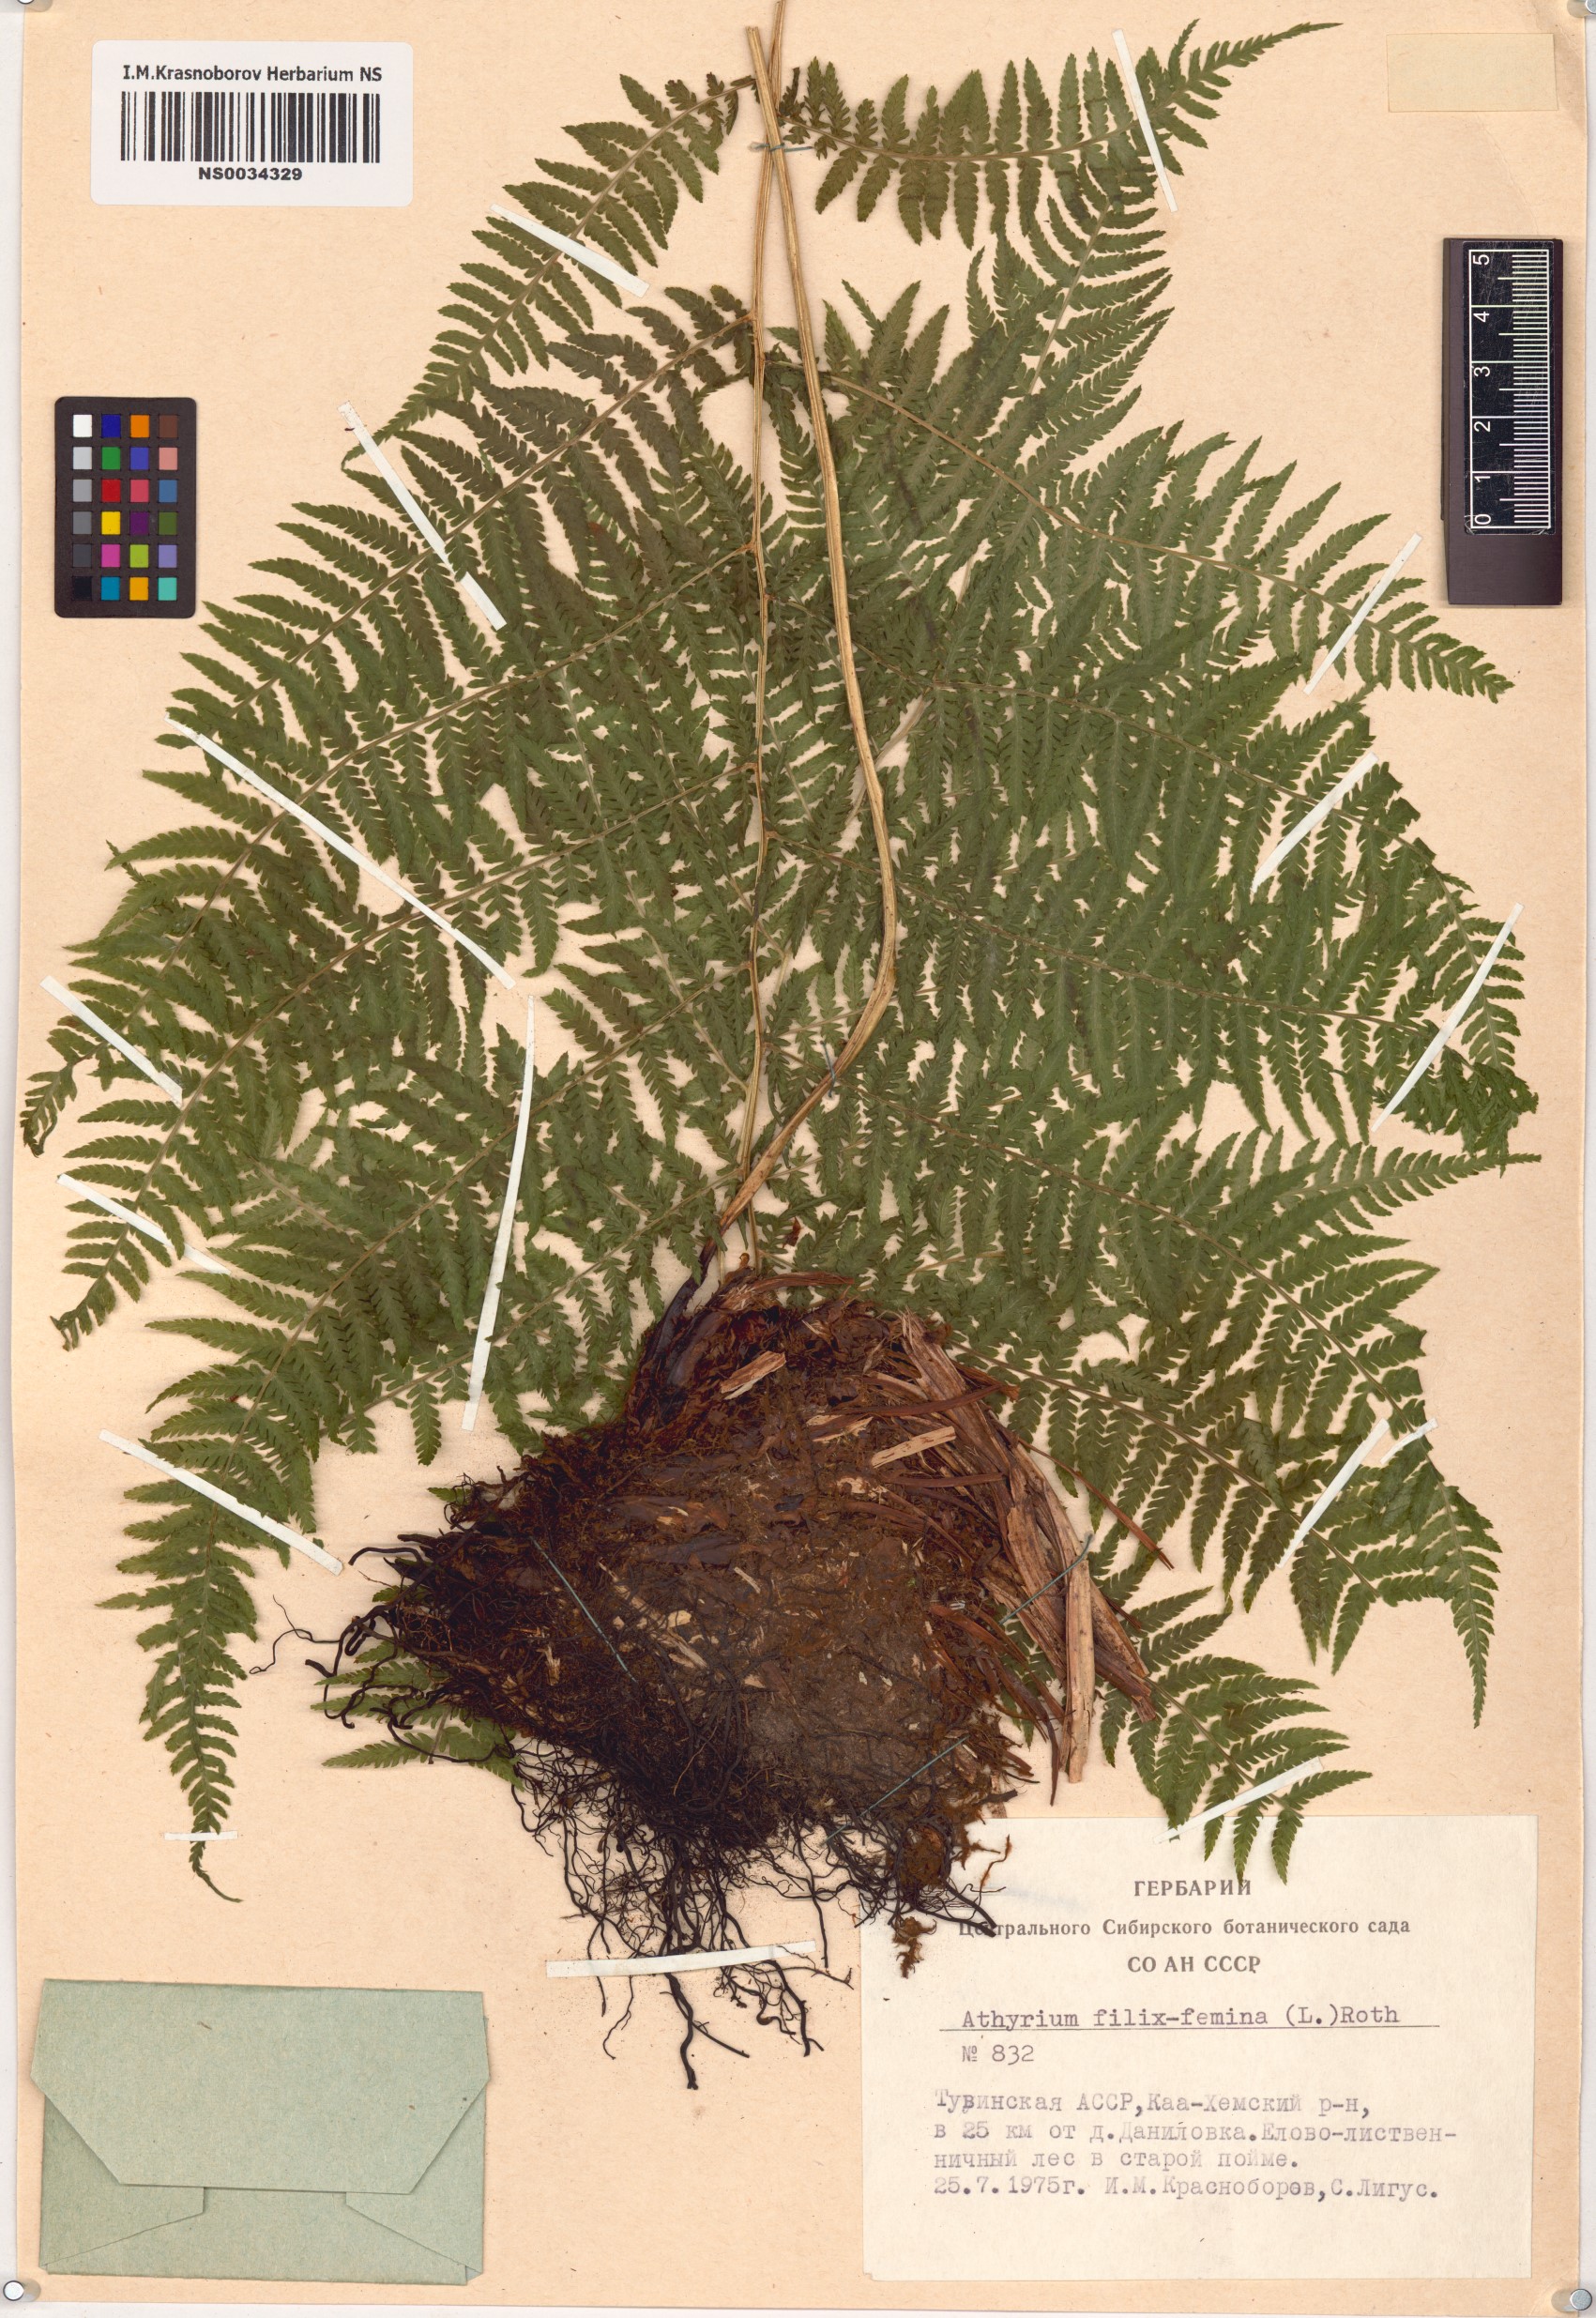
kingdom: Plantae
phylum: Tracheophyta
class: Polypodiopsida
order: Polypodiales
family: Athyriaceae
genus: Athyrium
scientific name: Athyrium filix-femina
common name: Lady fern
